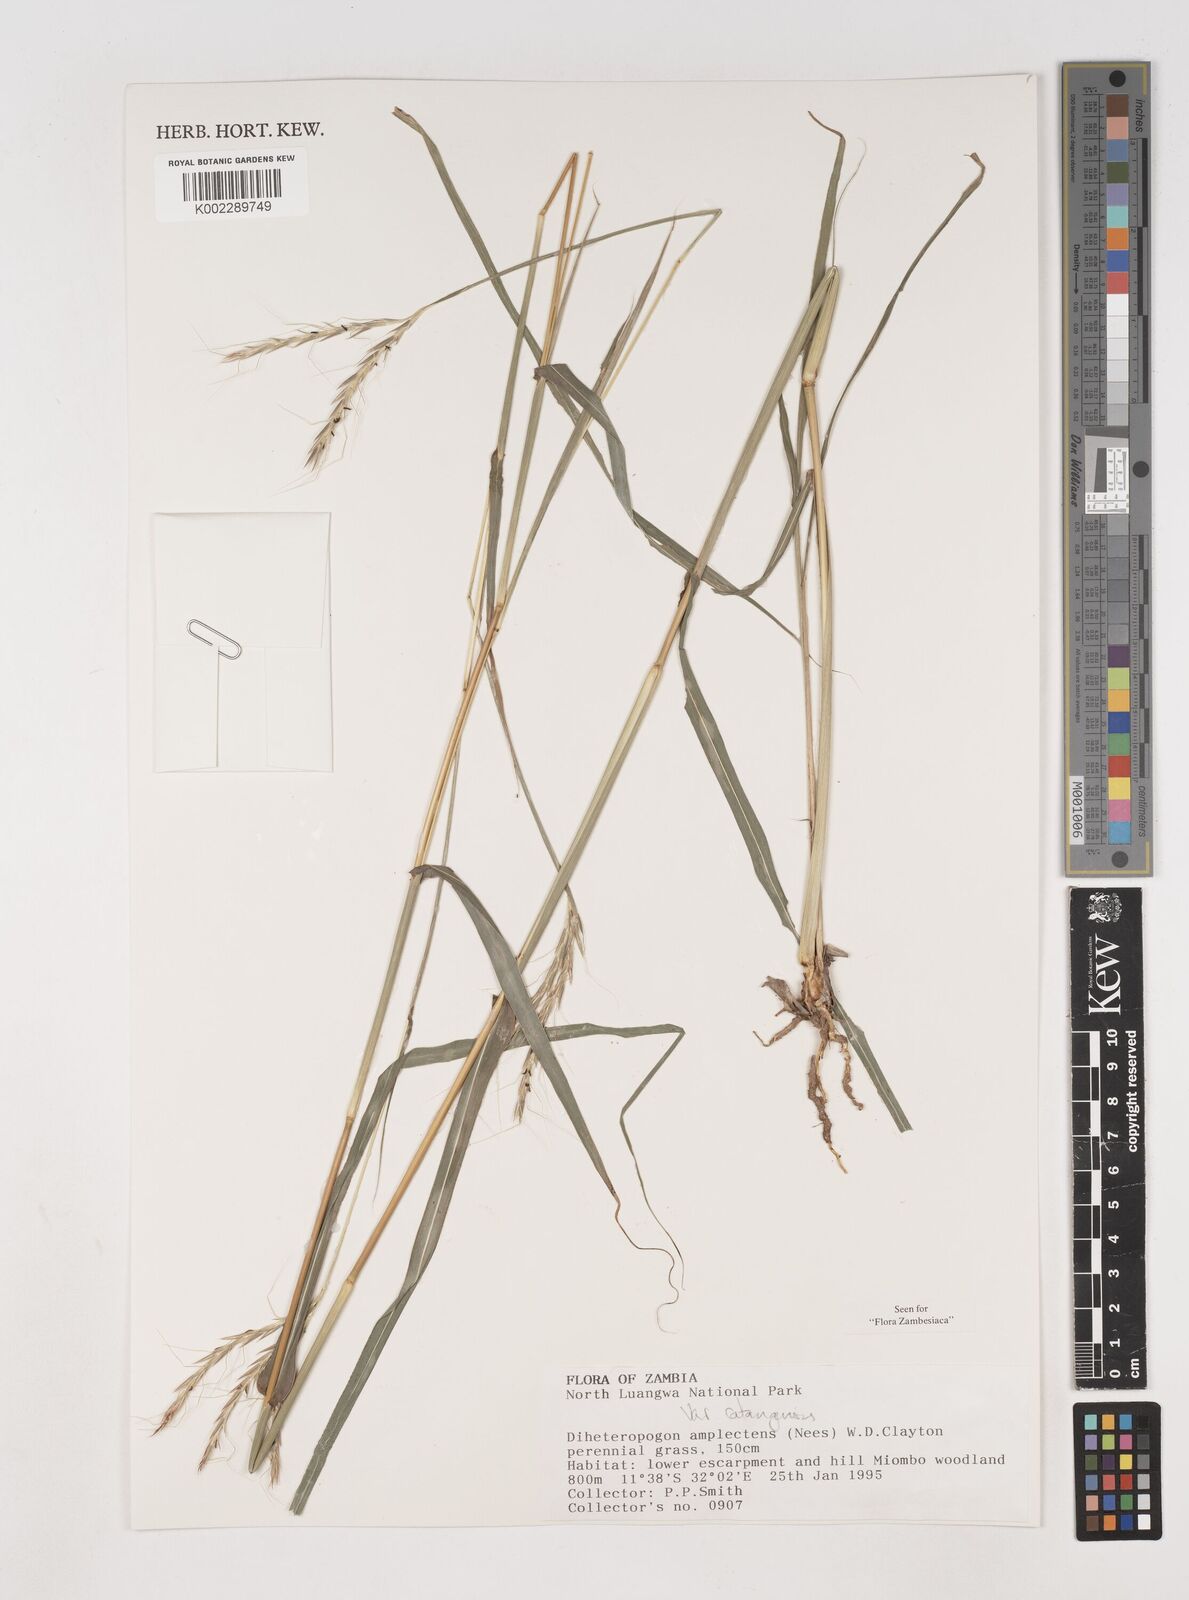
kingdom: Plantae
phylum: Tracheophyta
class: Liliopsida
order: Poales
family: Poaceae
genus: Diheteropogon
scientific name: Diheteropogon amplectens
